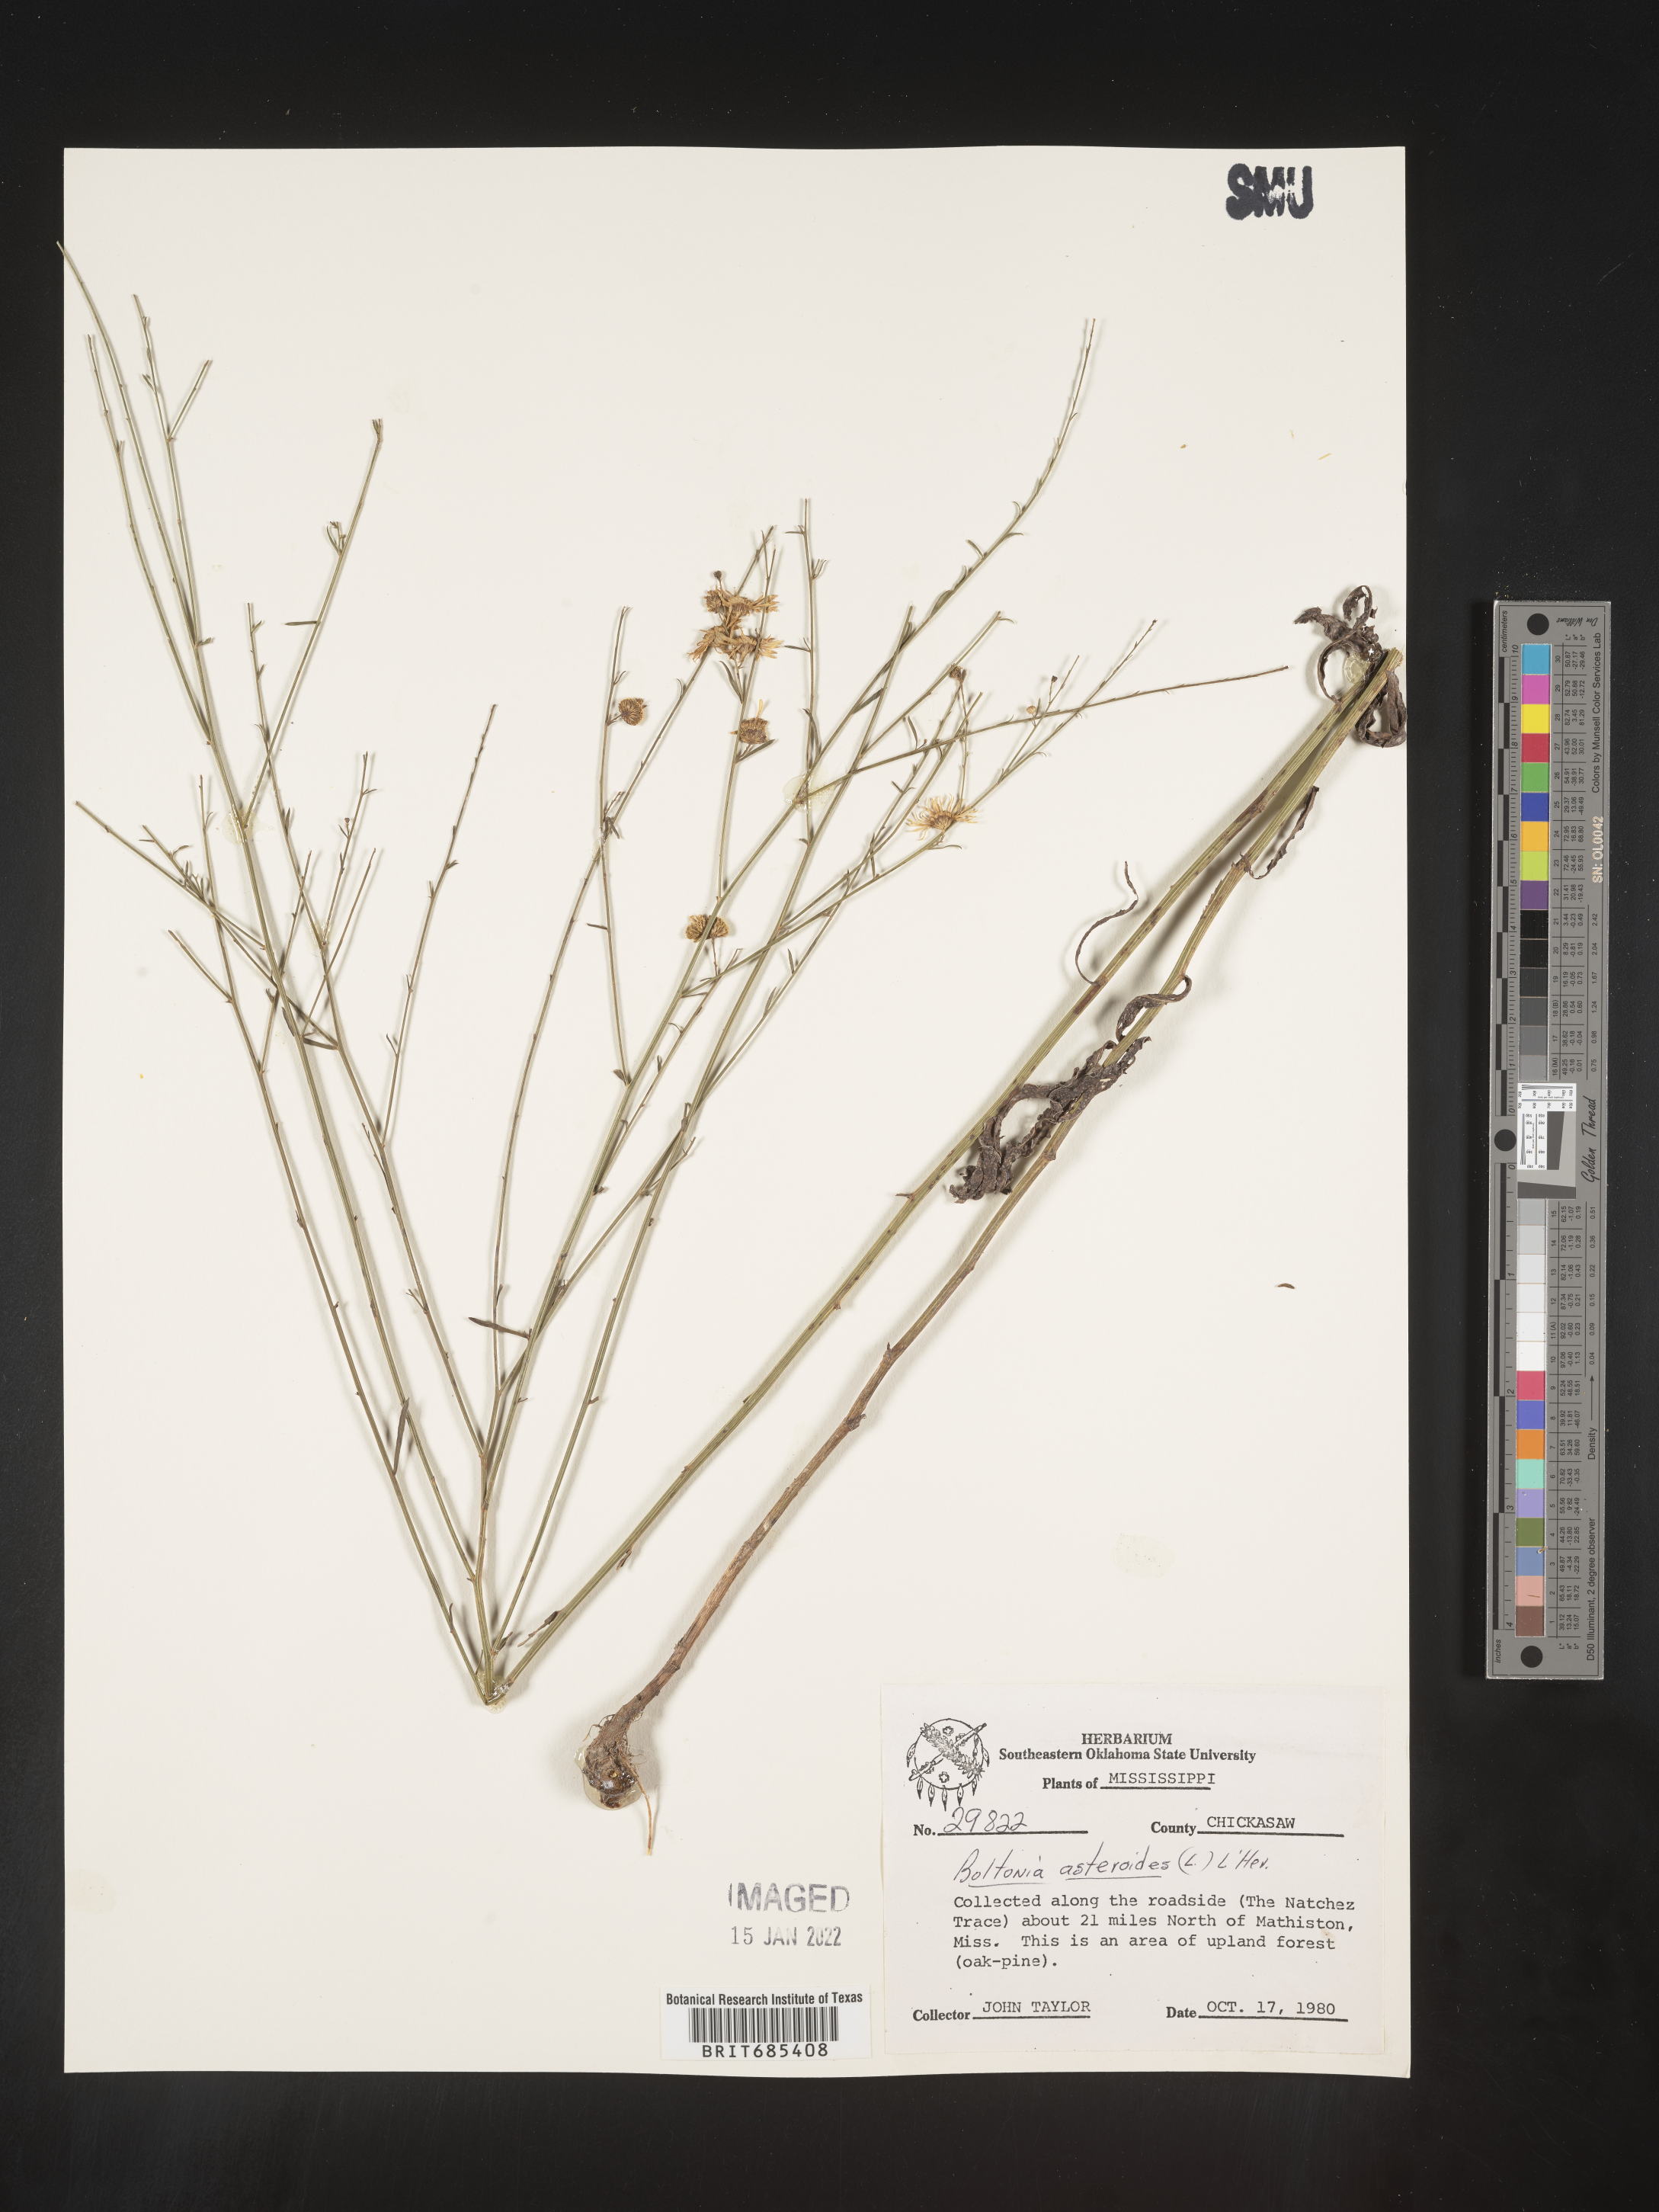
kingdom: Plantae
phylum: Tracheophyta
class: Magnoliopsida
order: Asterales
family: Asteraceae
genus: Boltonia
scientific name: Boltonia asteroides
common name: False chamomile
